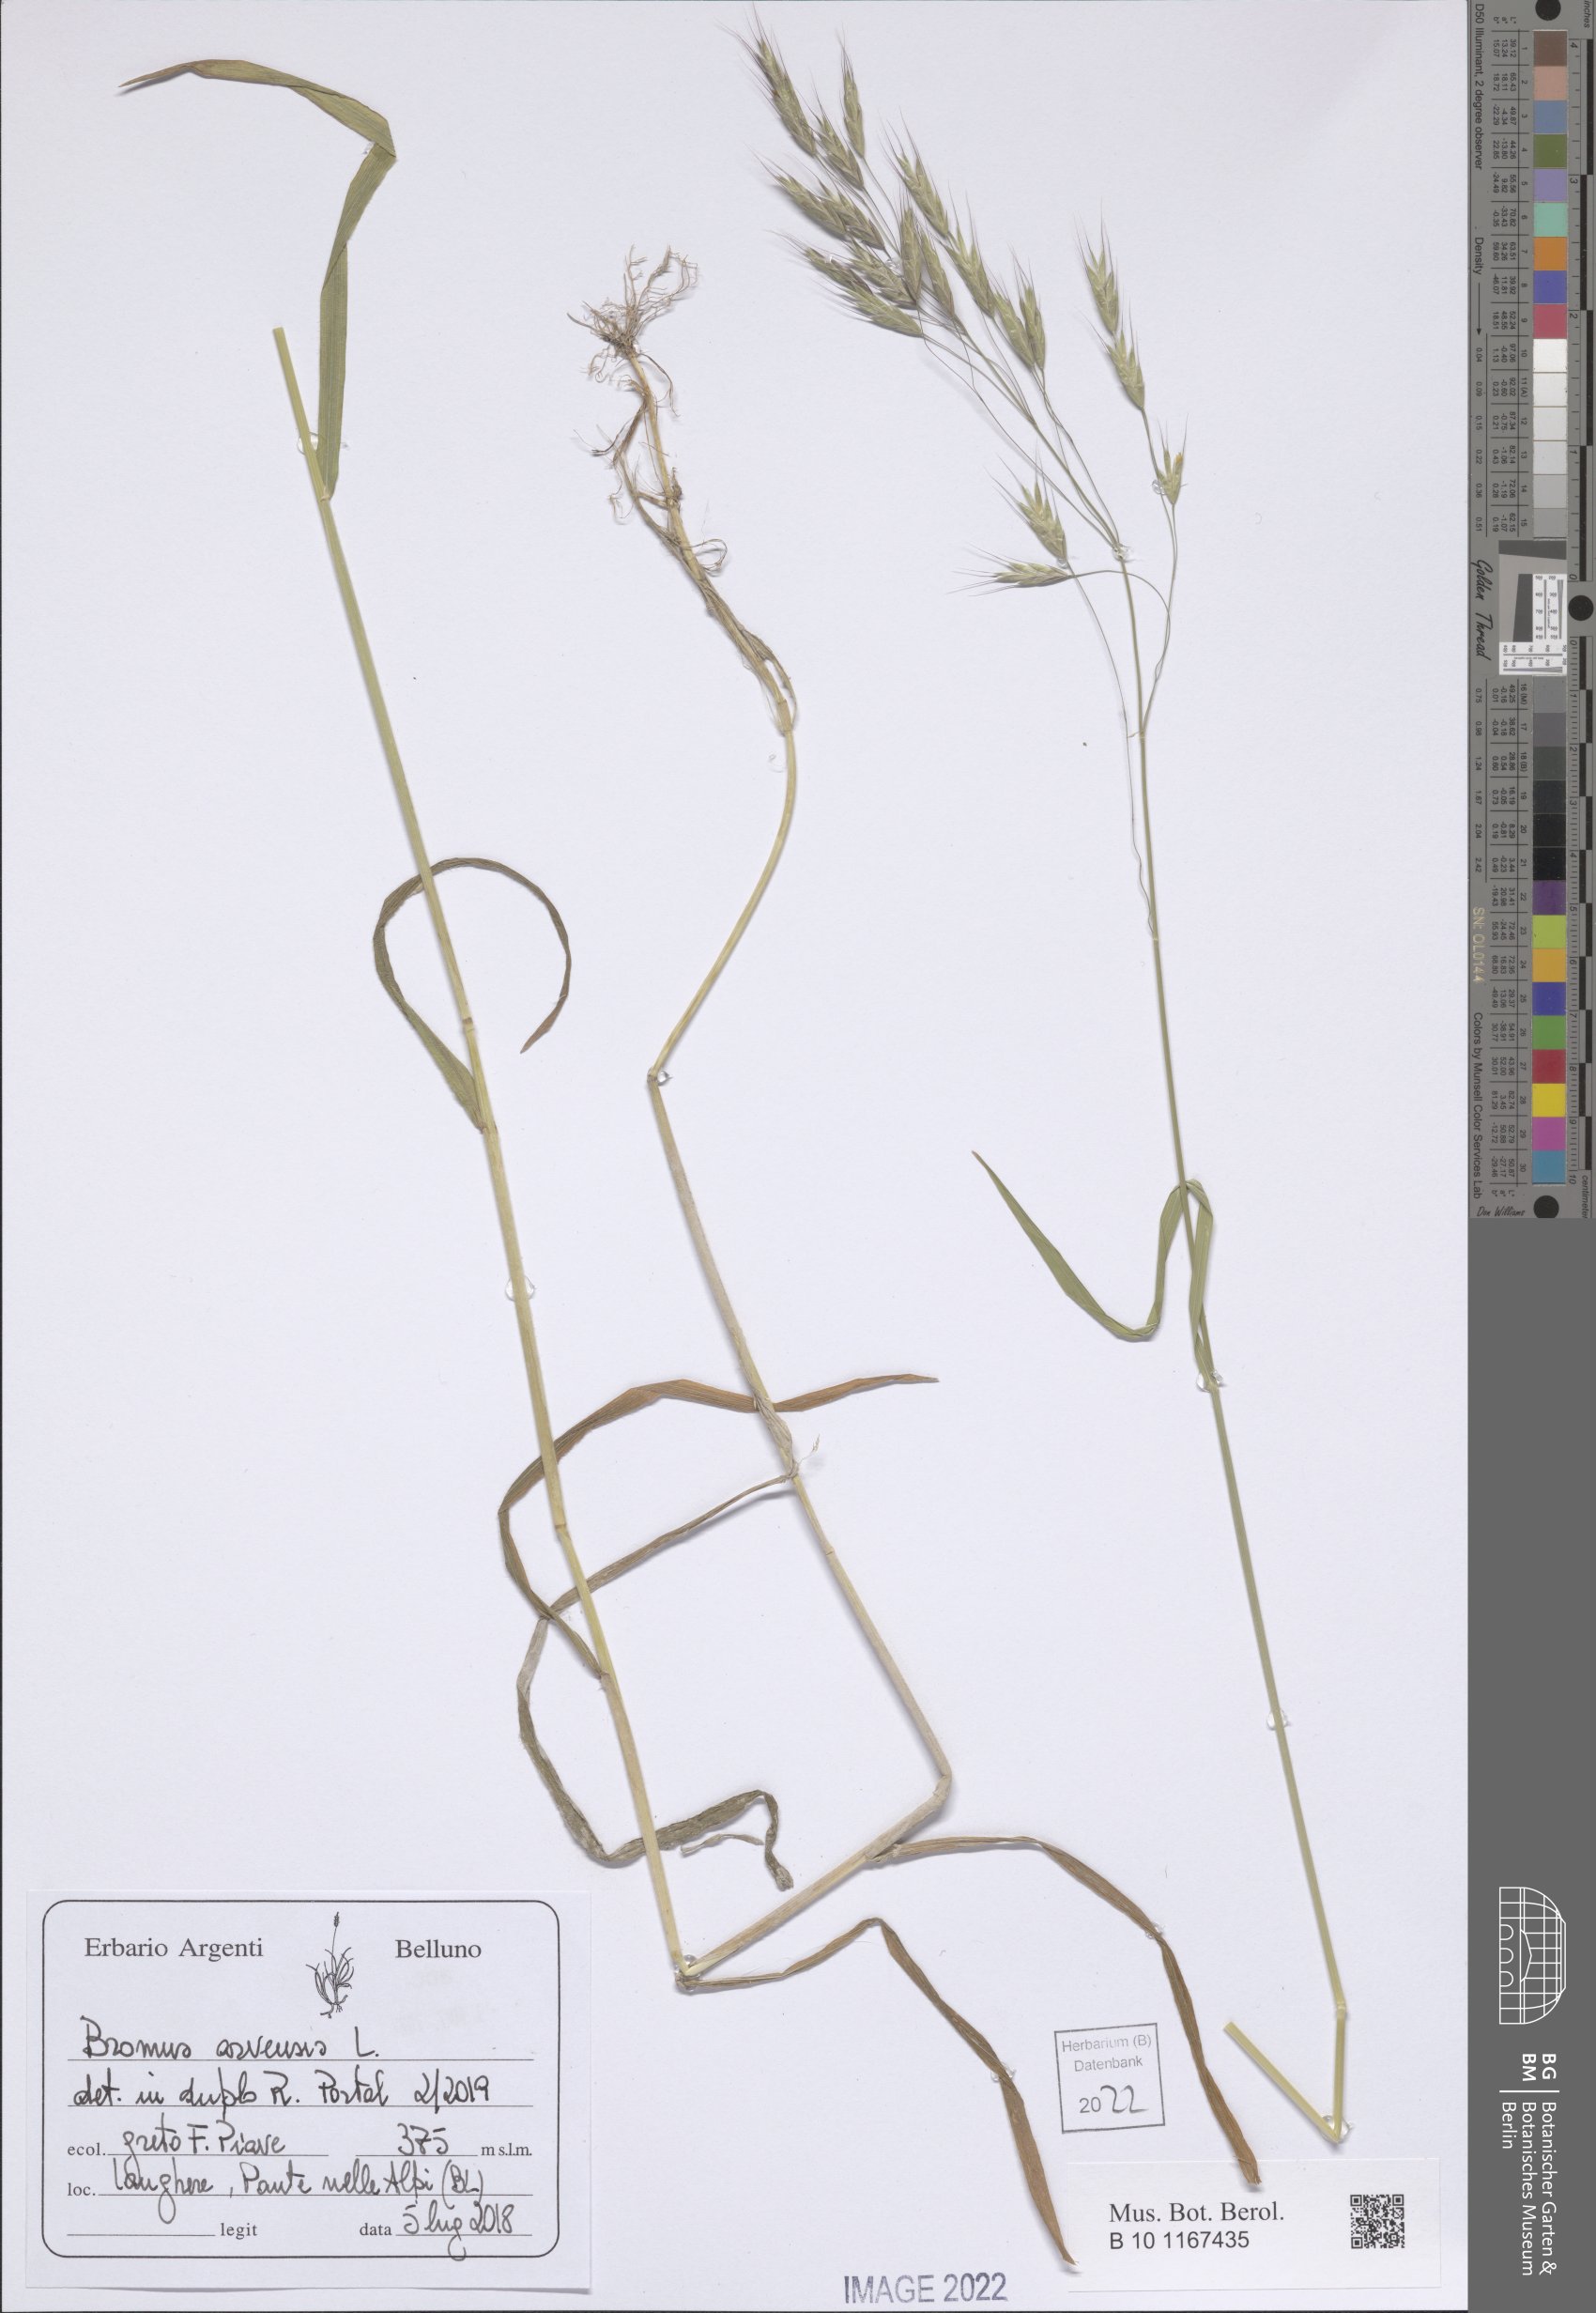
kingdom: Plantae
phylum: Tracheophyta
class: Liliopsida
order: Poales
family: Poaceae
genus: Bromus
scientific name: Bromus arvensis
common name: Field brome
